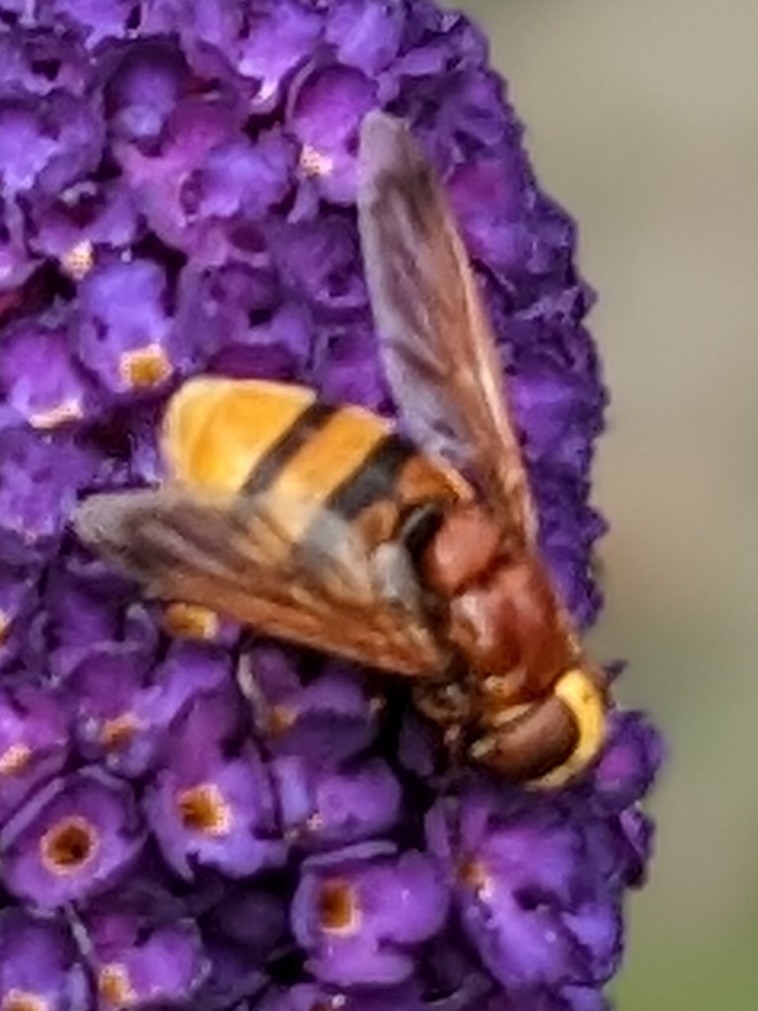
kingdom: Animalia
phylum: Arthropoda
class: Insecta
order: Diptera
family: Syrphidae
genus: Volucella
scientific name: Volucella zonaria
